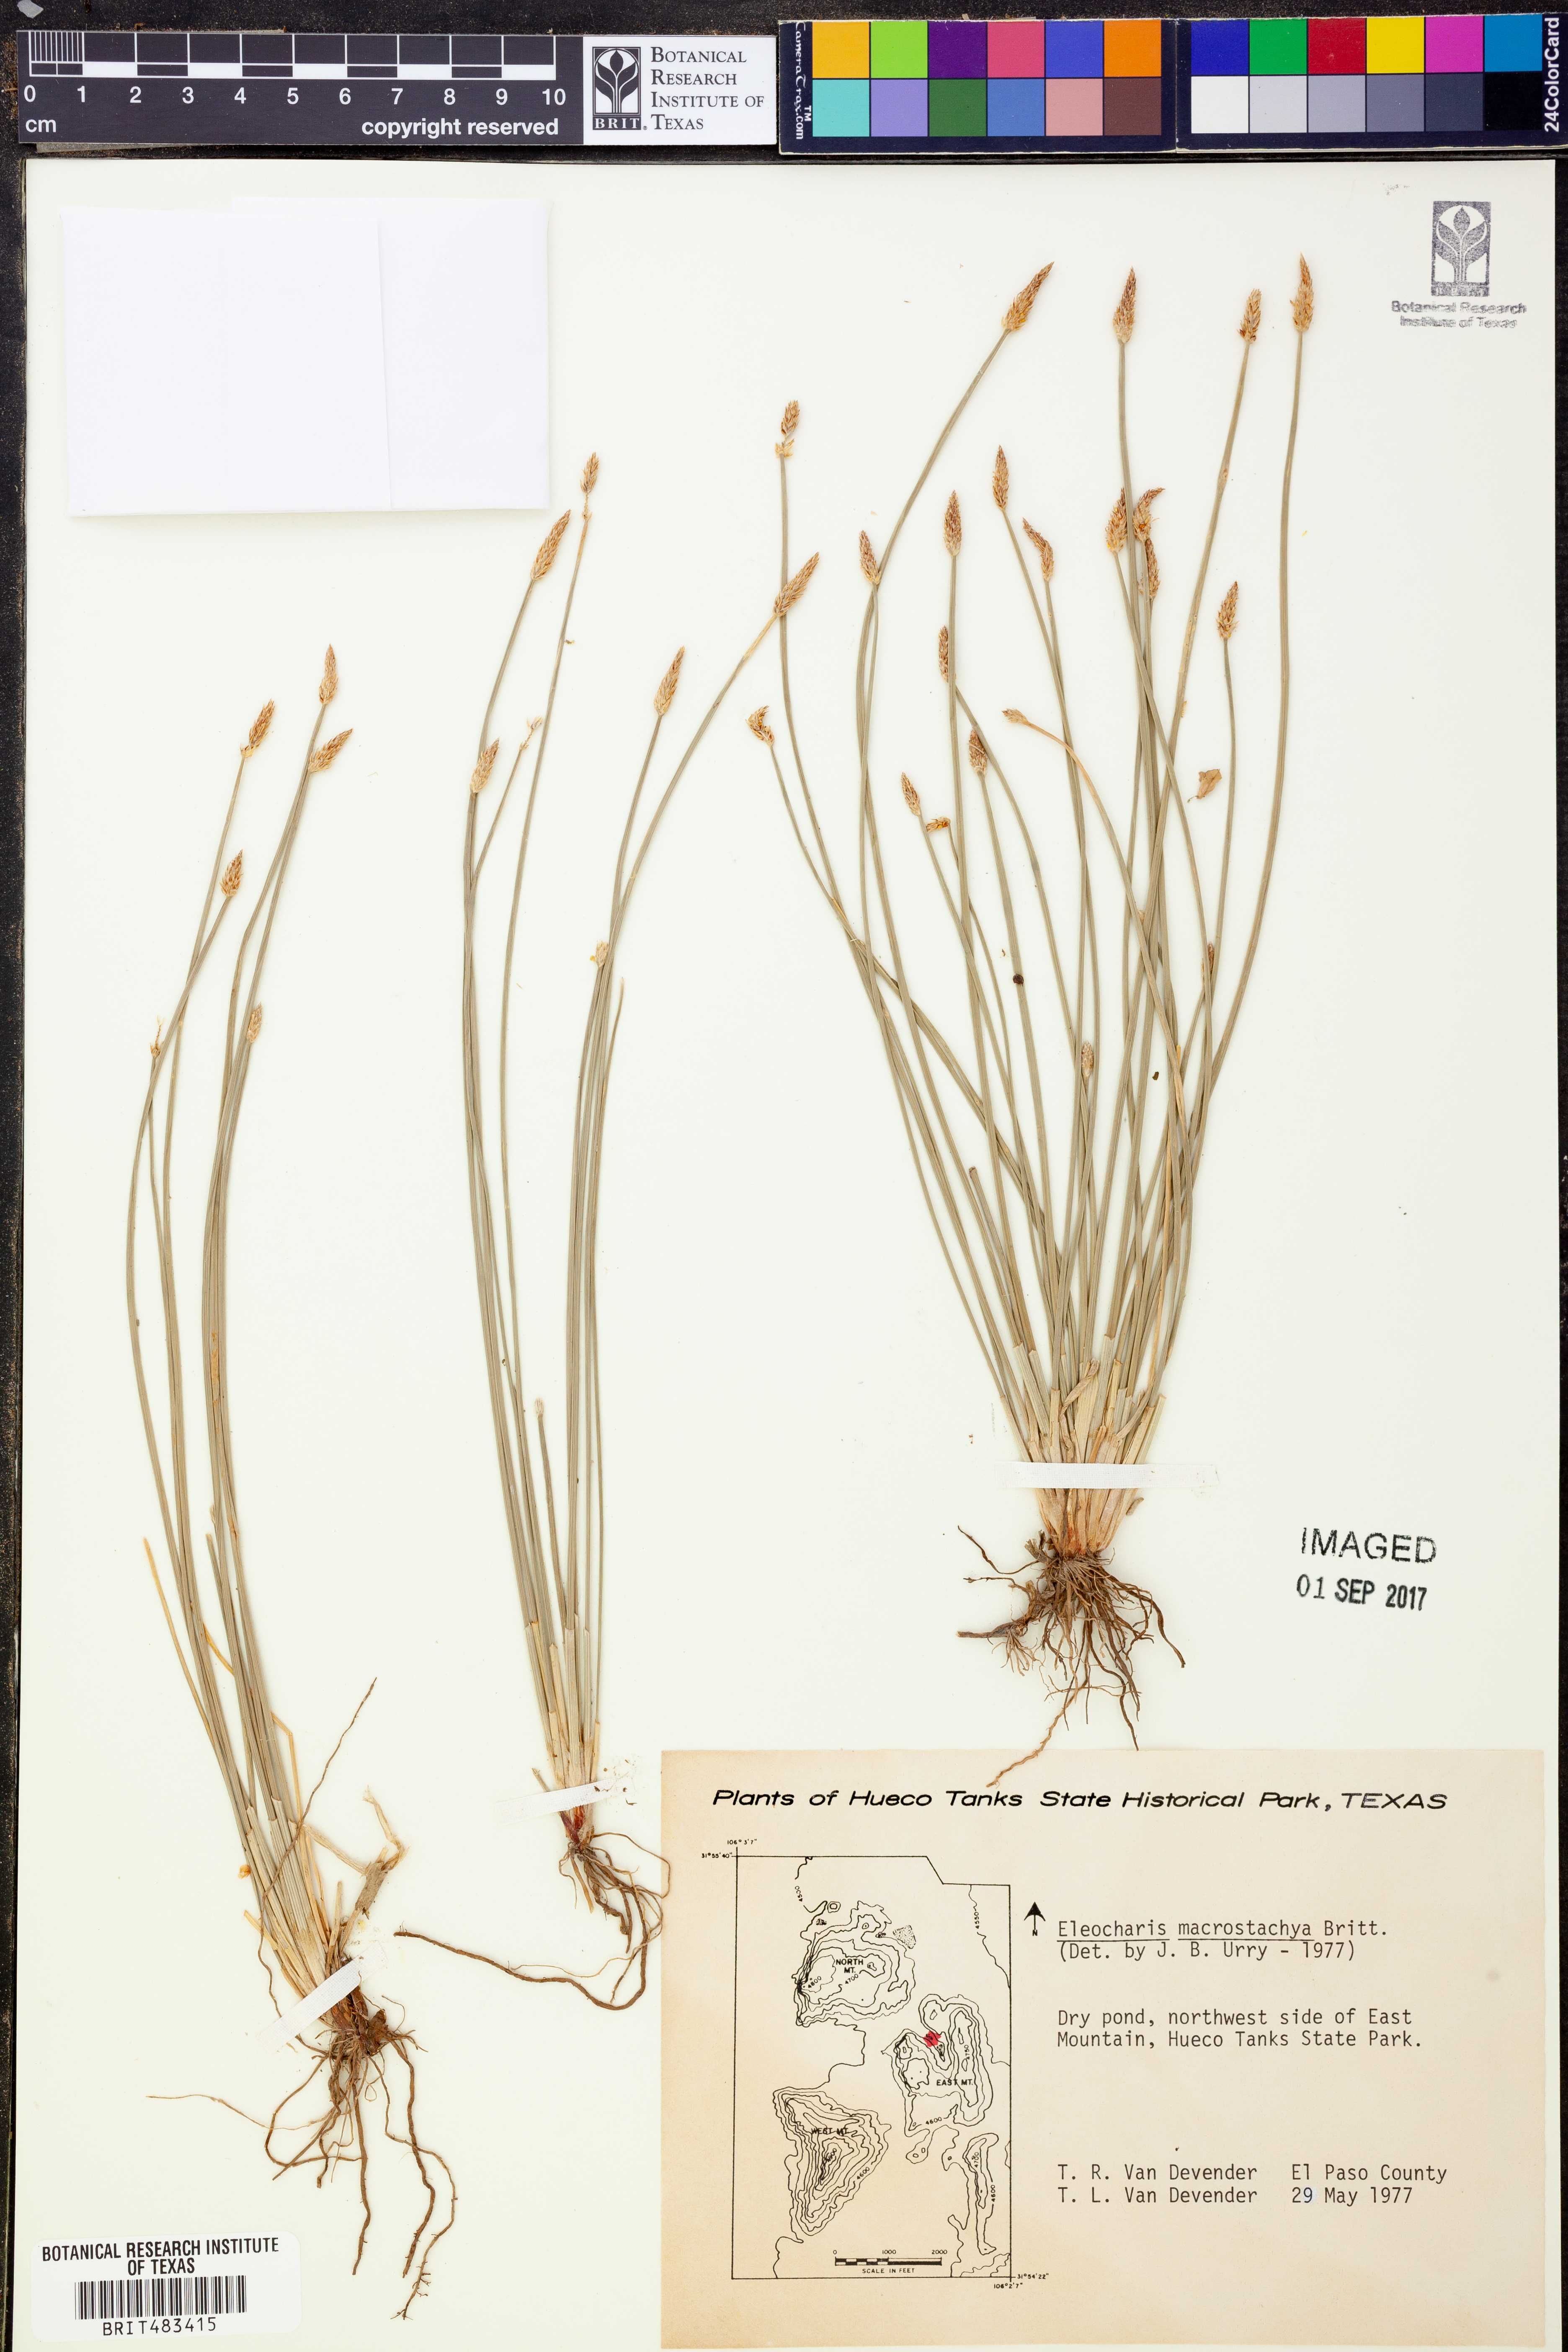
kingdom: Plantae
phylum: Tracheophyta
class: Liliopsida
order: Poales
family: Cyperaceae
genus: Eleocharis
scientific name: Eleocharis macrostachya
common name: Pale spikerush
